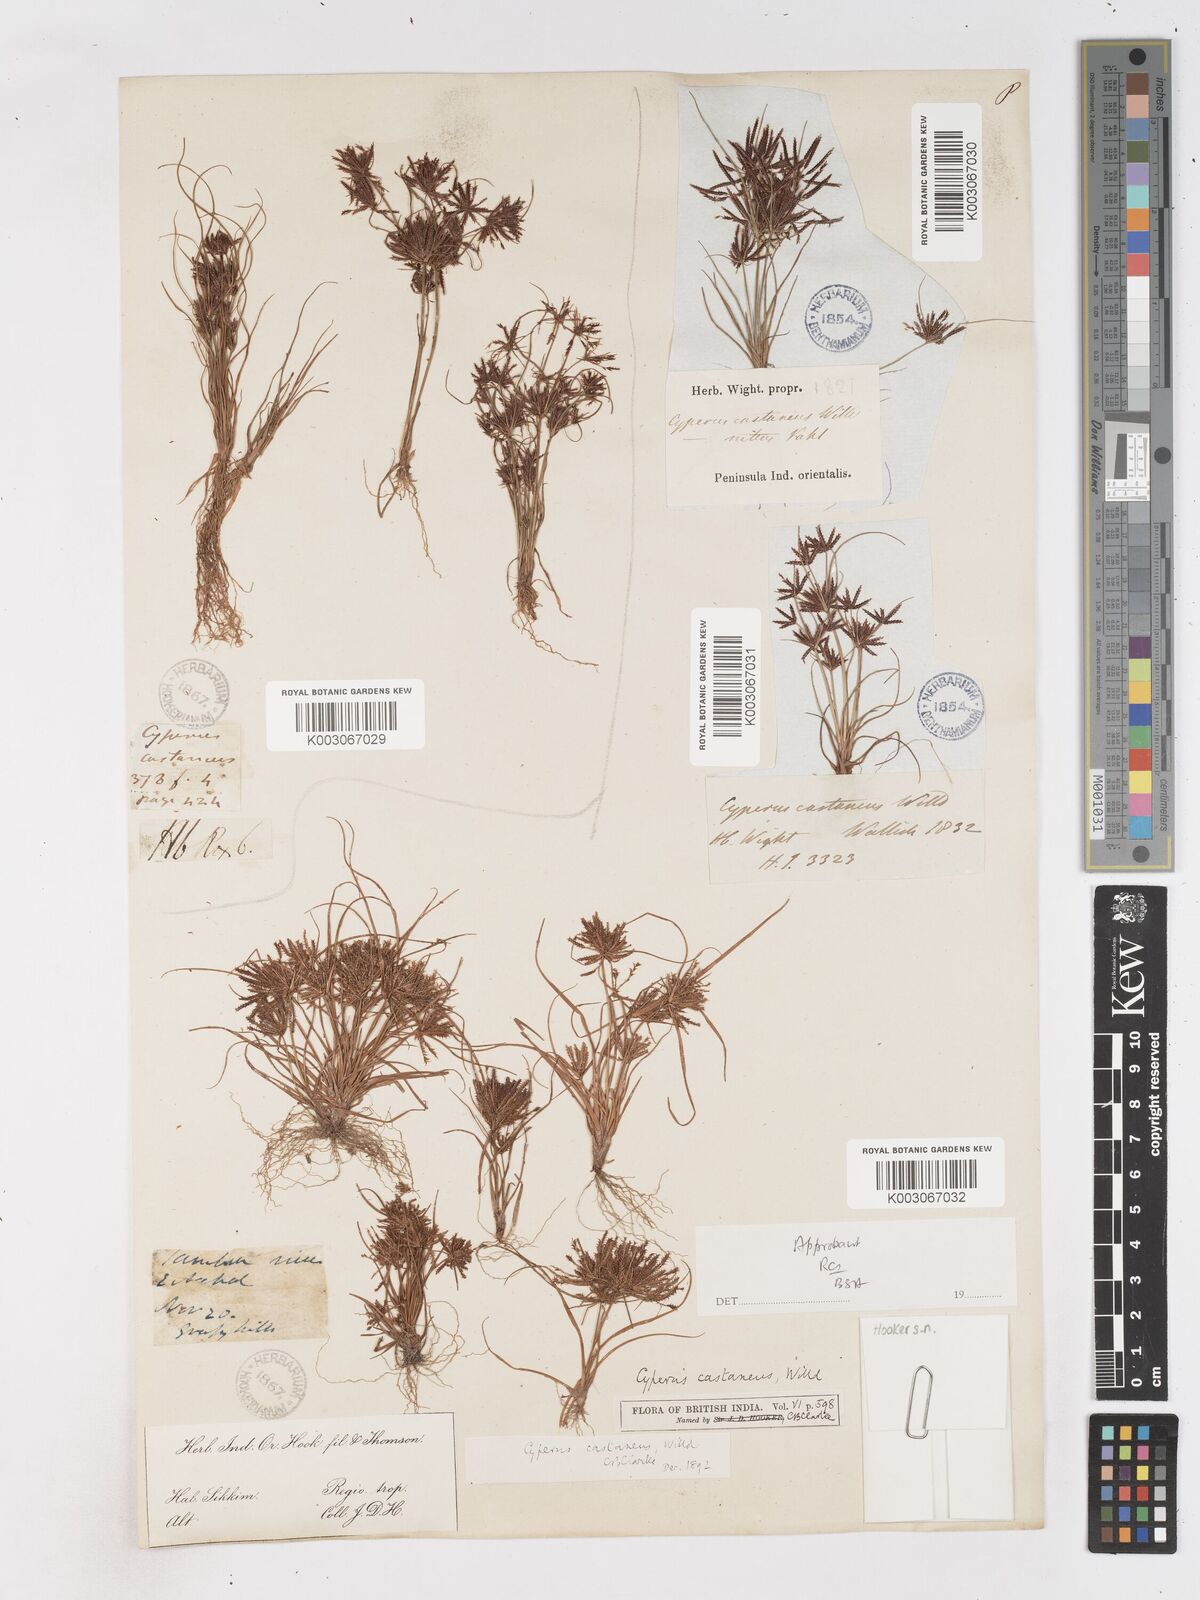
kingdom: Plantae
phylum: Tracheophyta
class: Liliopsida
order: Poales
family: Cyperaceae
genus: Cyperus
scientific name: Cyperus castaneus
